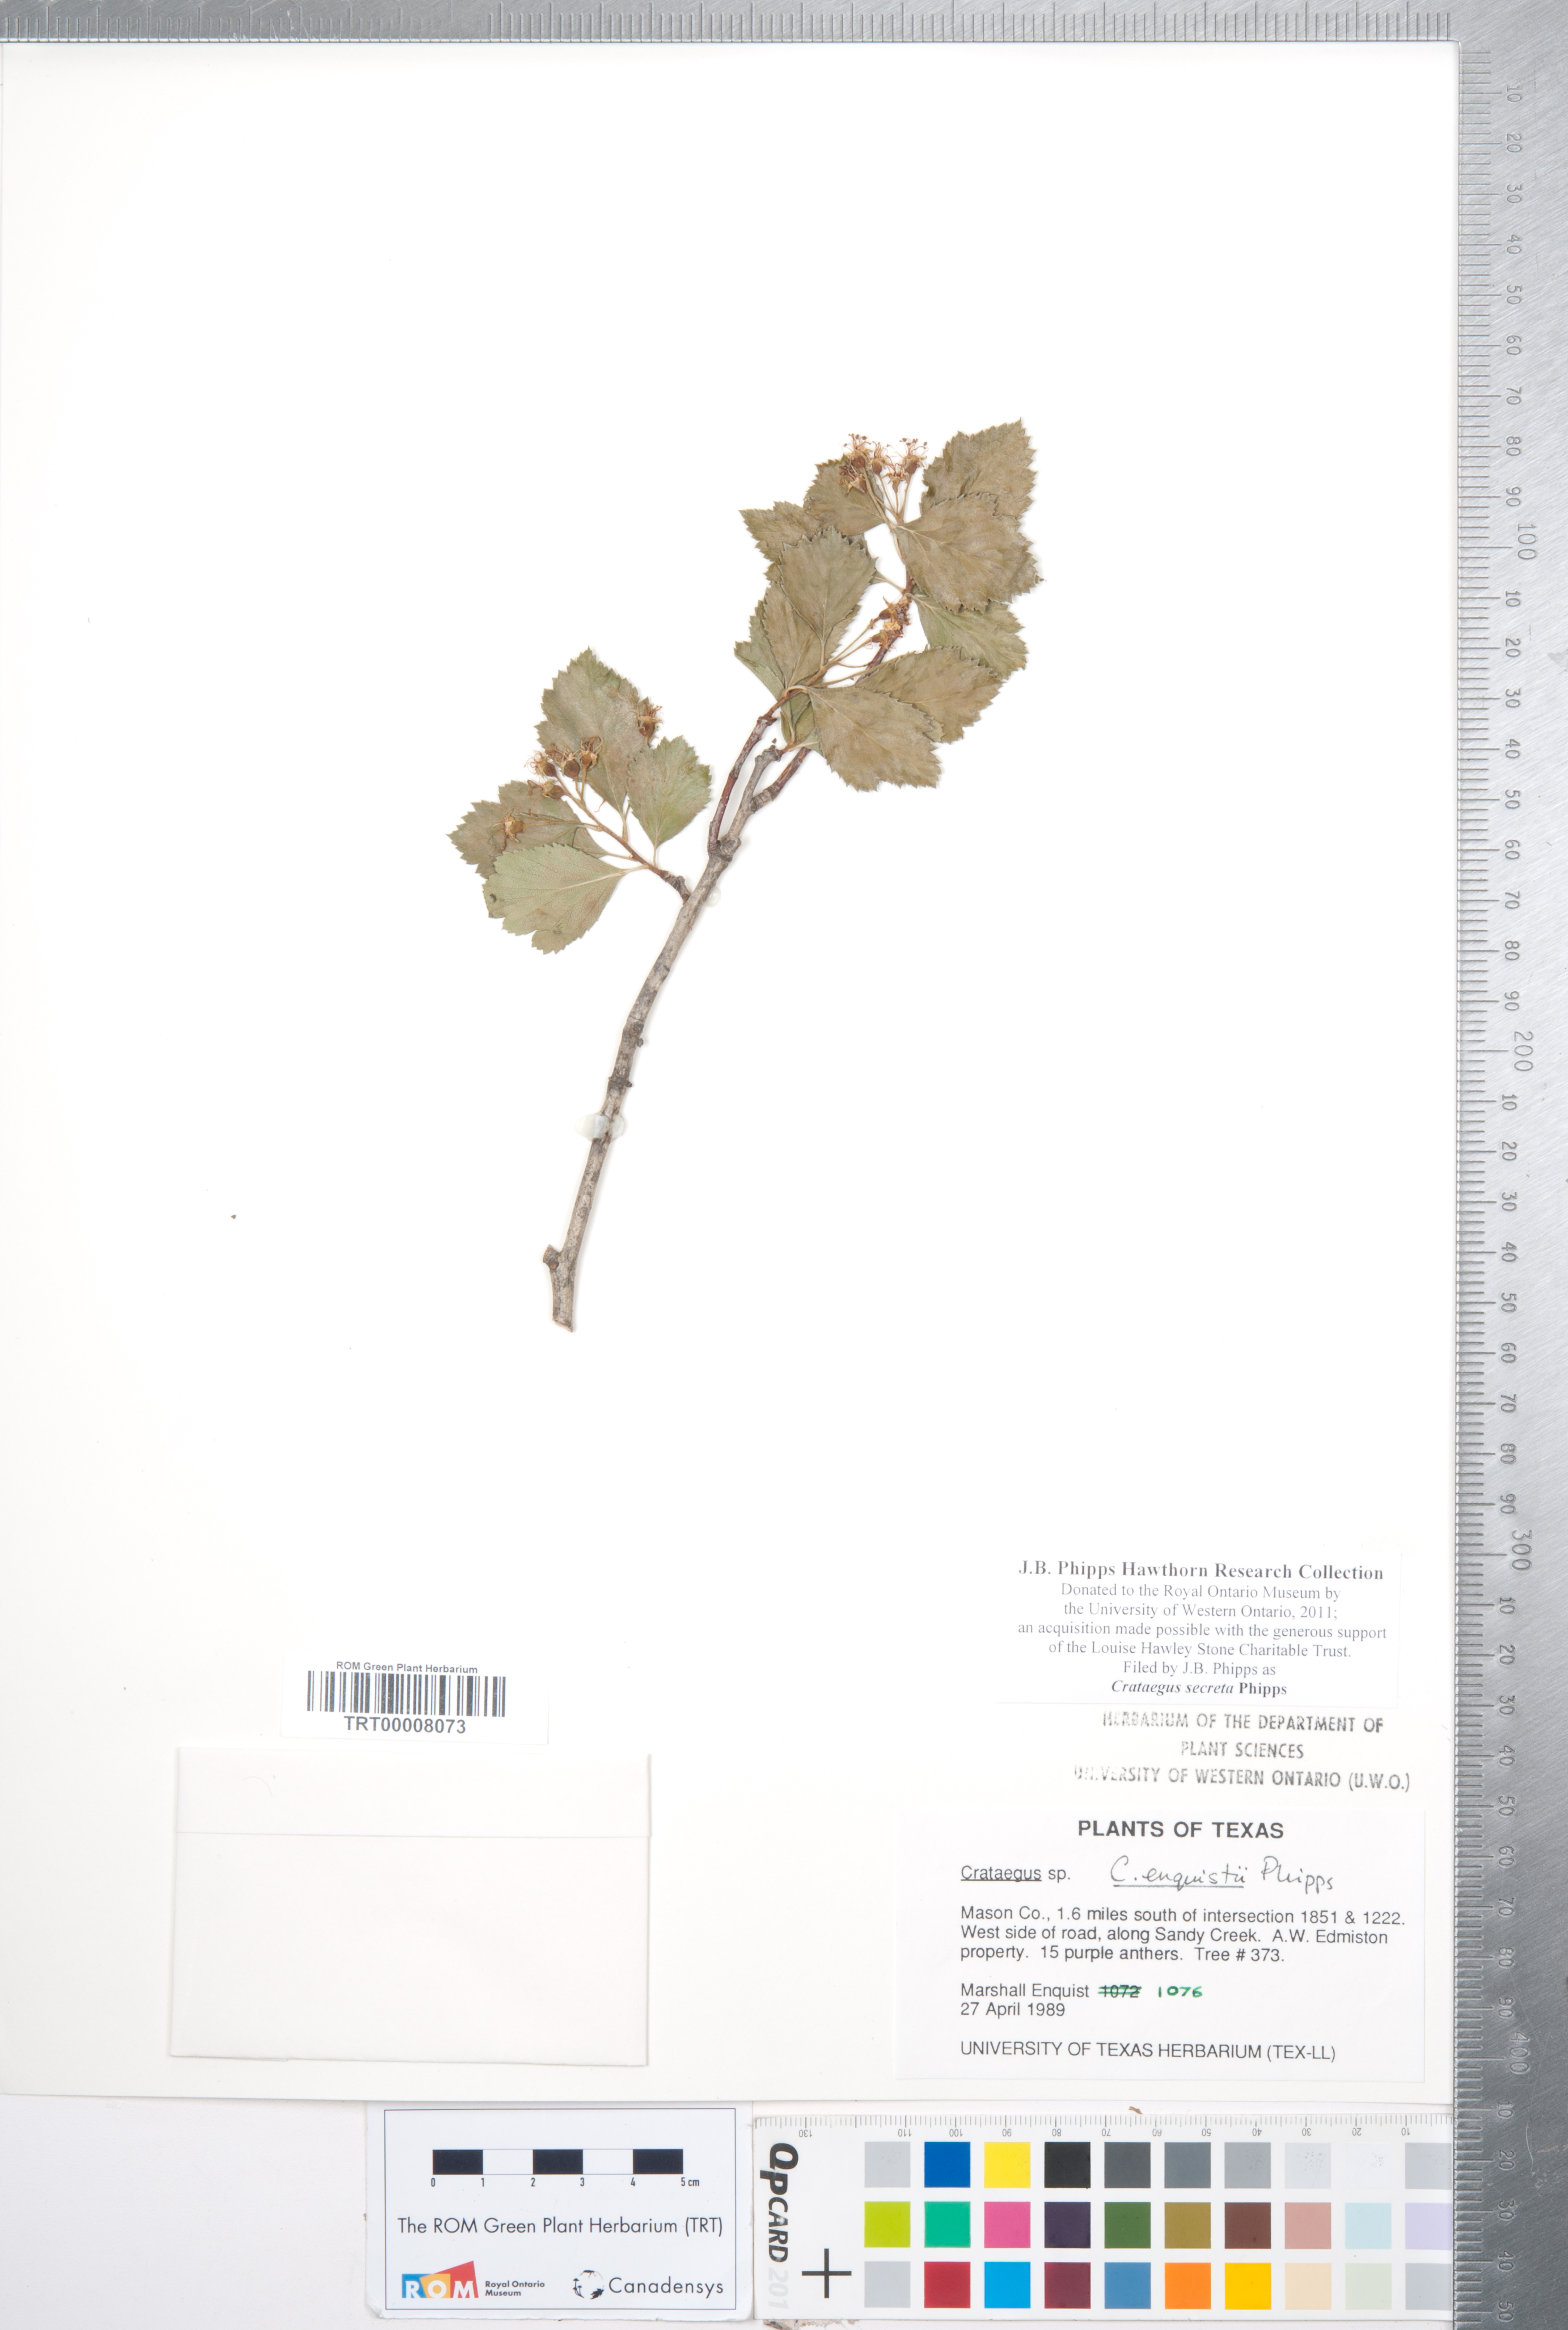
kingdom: Plantae
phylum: Tracheophyta
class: Magnoliopsida
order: Rosales
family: Rosaceae
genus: Crataegus
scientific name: Crataegus turnerorum
